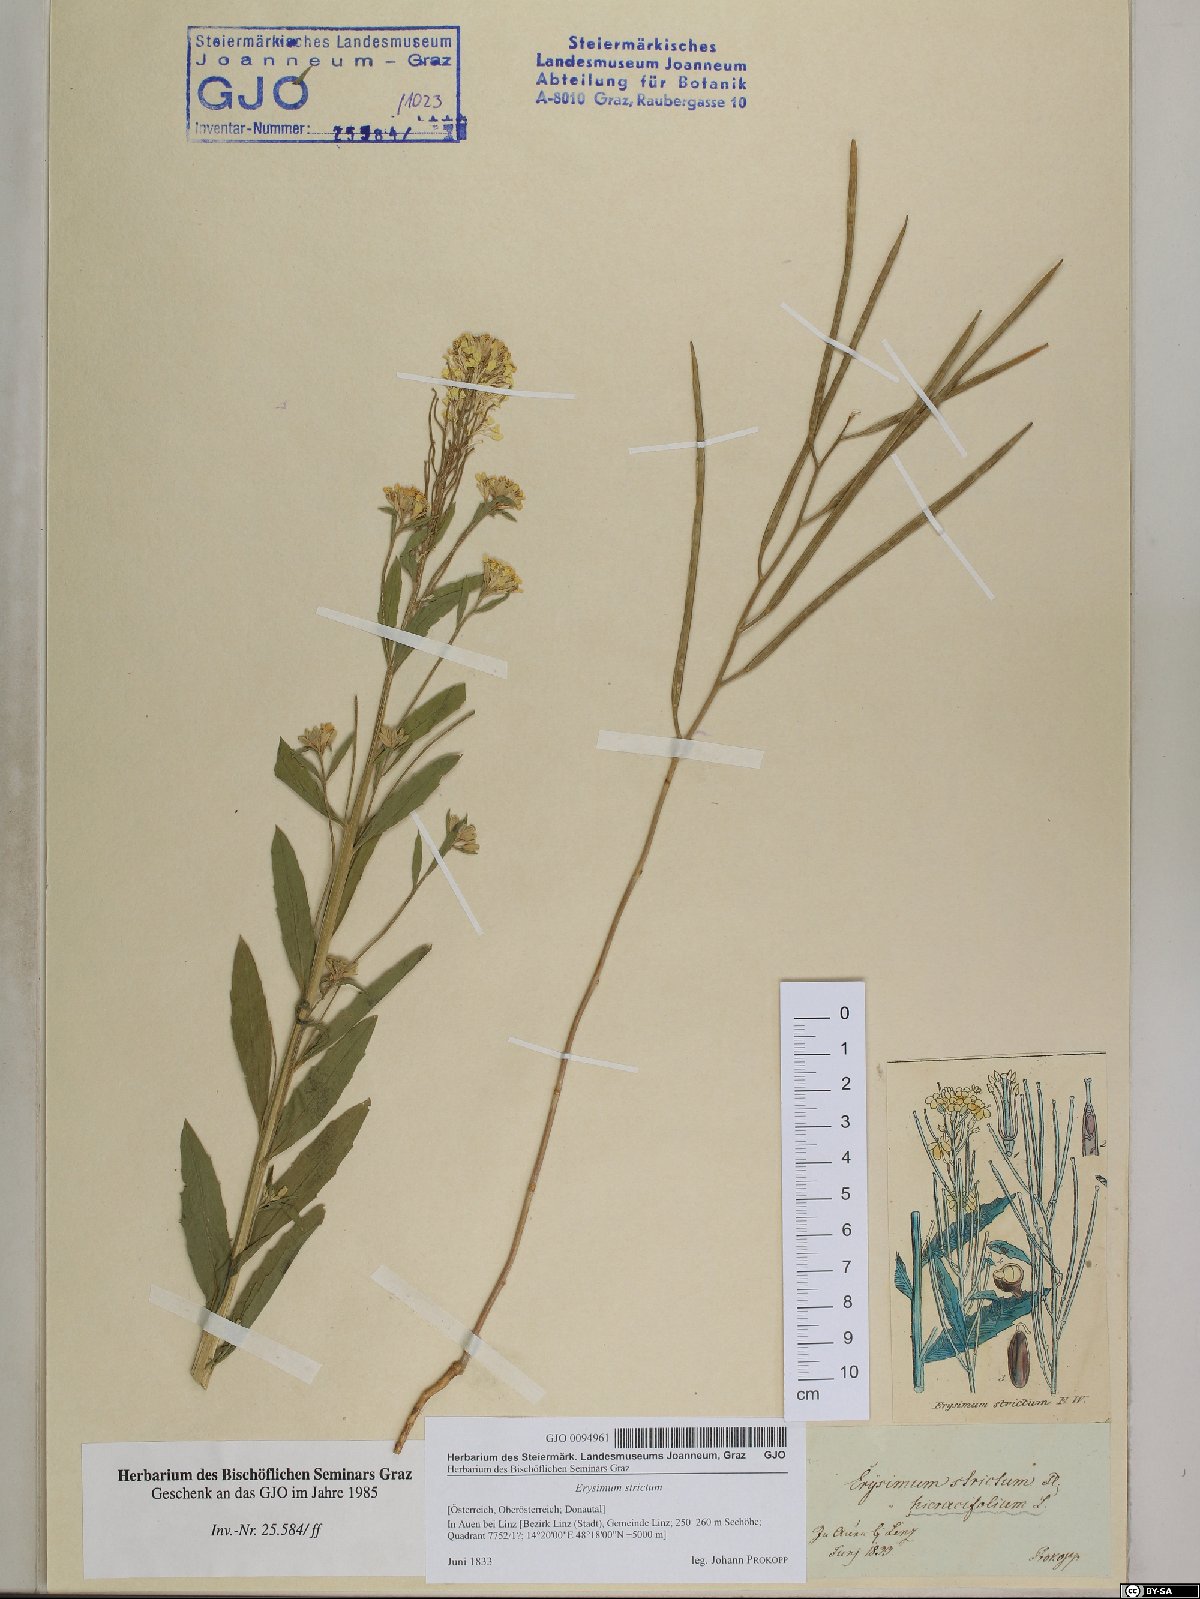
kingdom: Plantae
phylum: Tracheophyta
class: Magnoliopsida
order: Brassicales
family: Brassicaceae
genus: Erysimum
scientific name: Erysimum strictum
